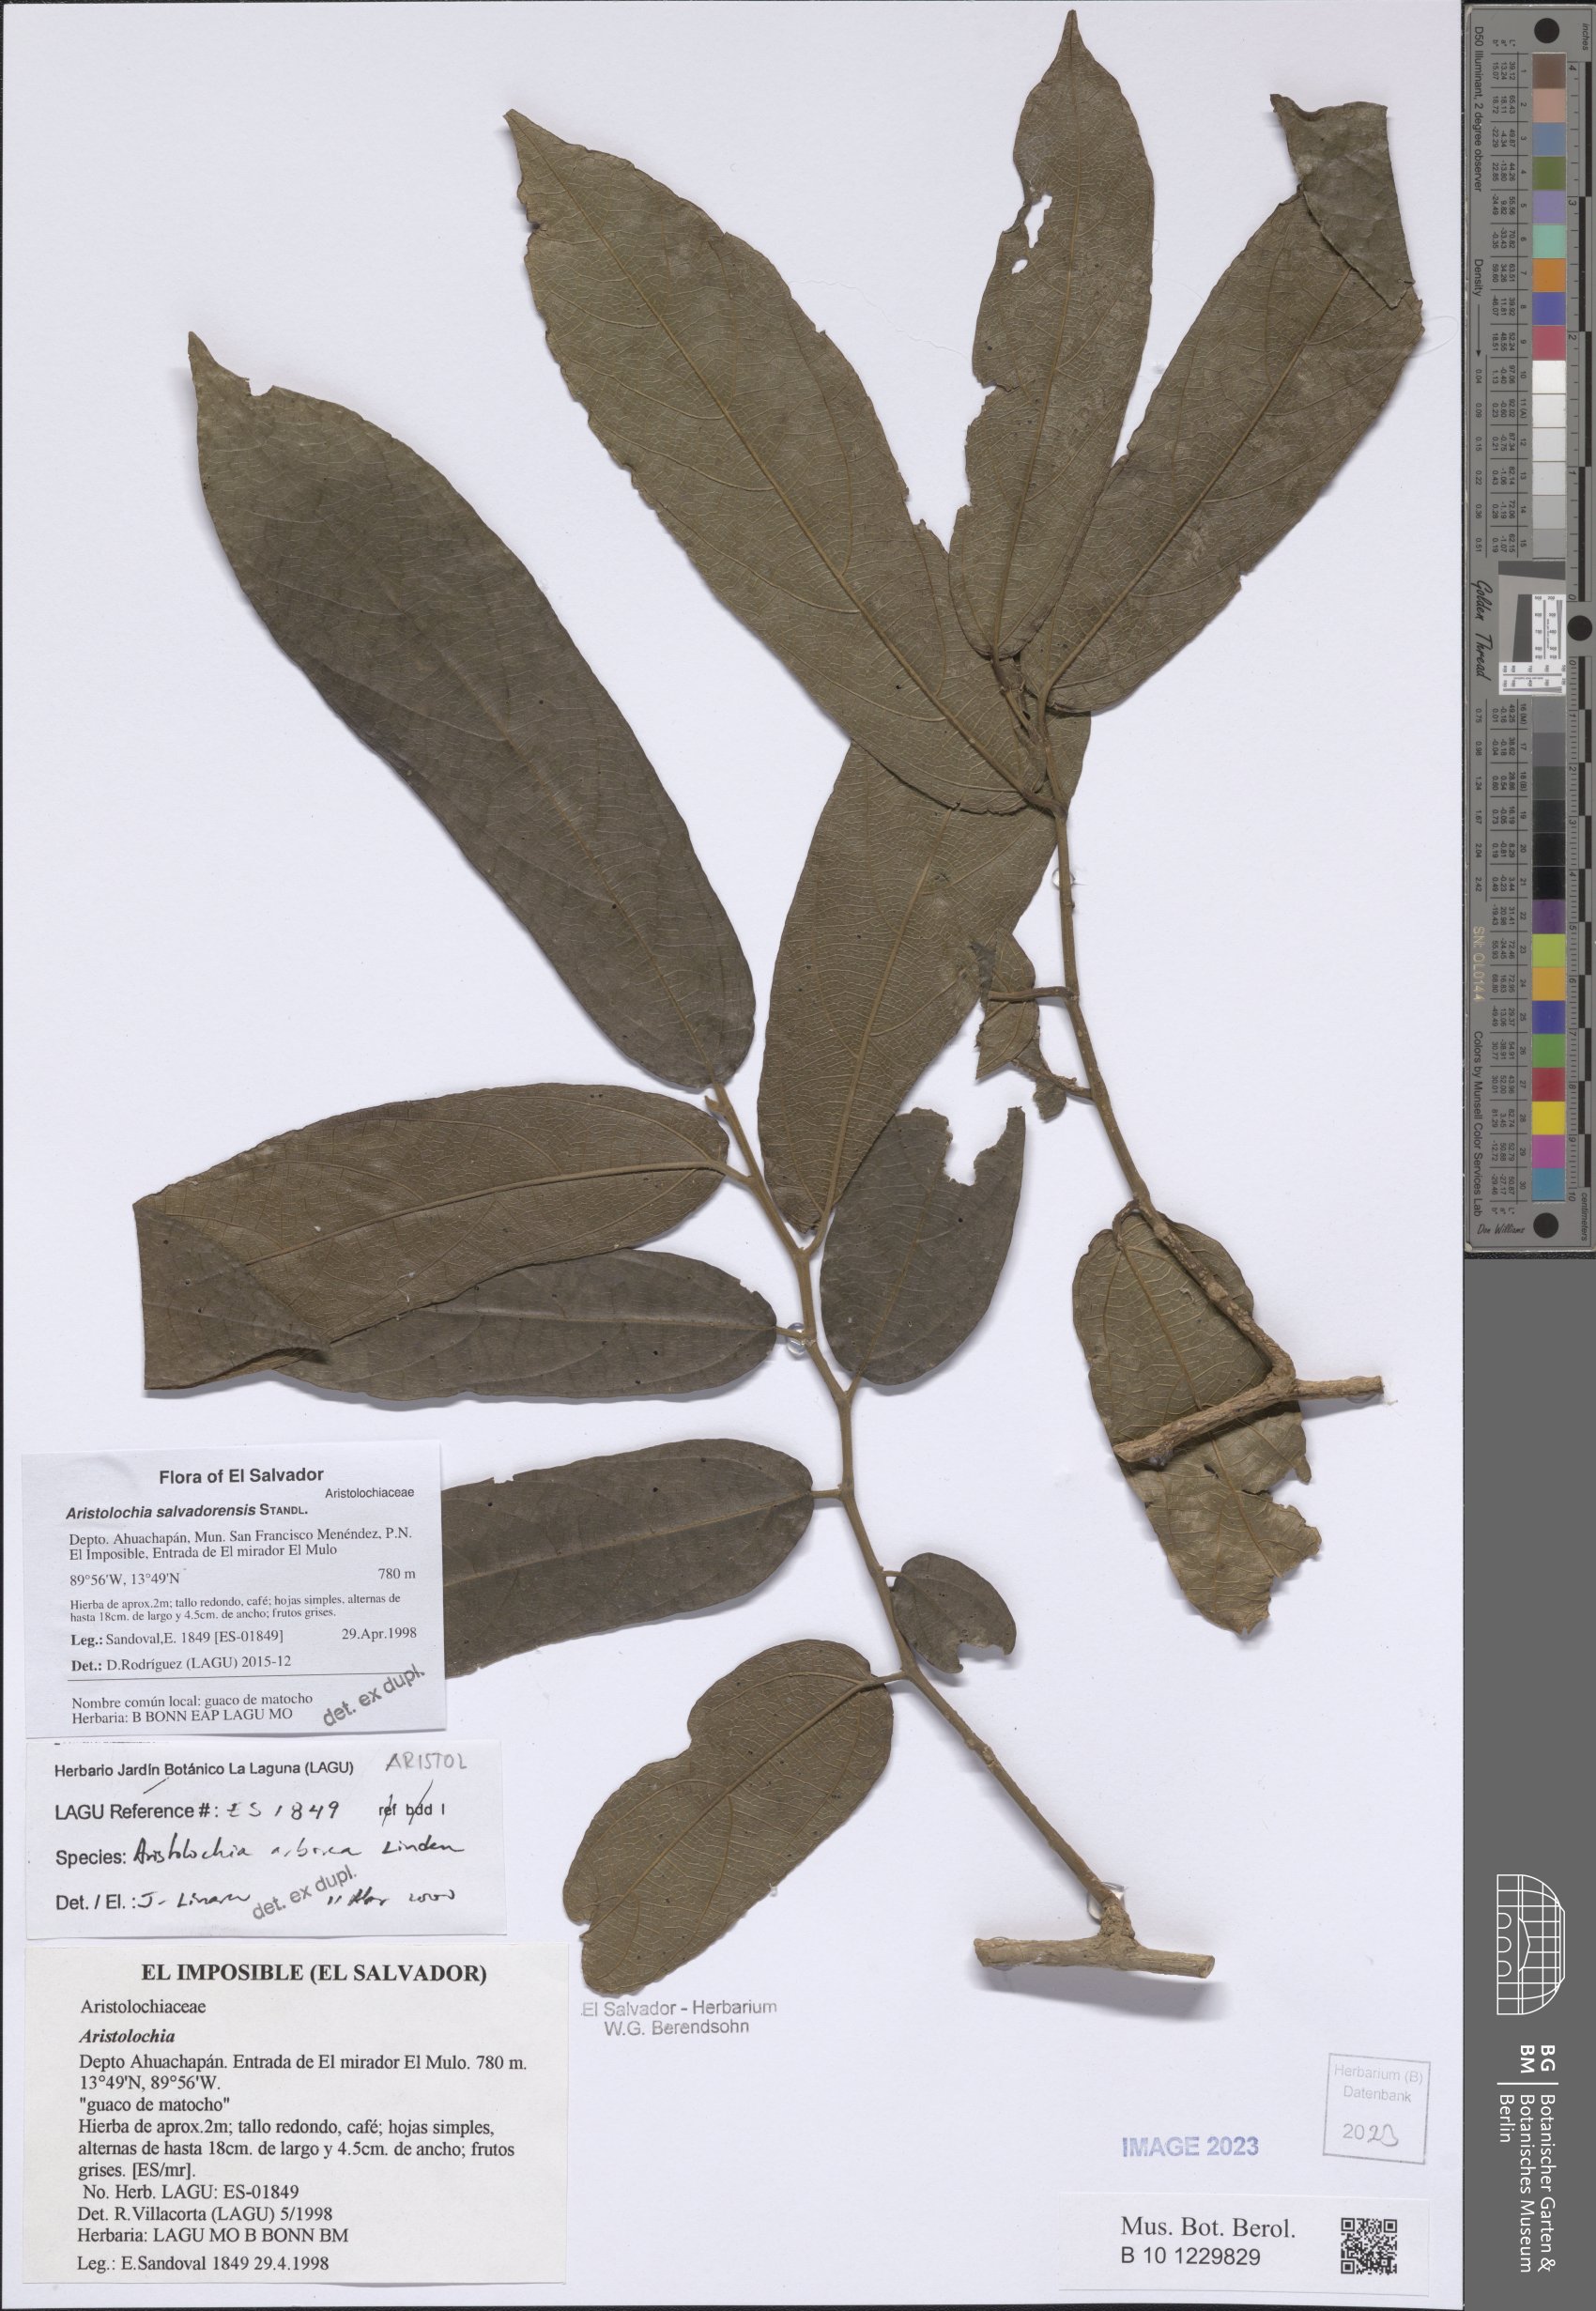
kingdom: Plantae
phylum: Tracheophyta
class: Magnoliopsida
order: Piperales
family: Aristolochiaceae
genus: Isotrema
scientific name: Isotrema arborea
